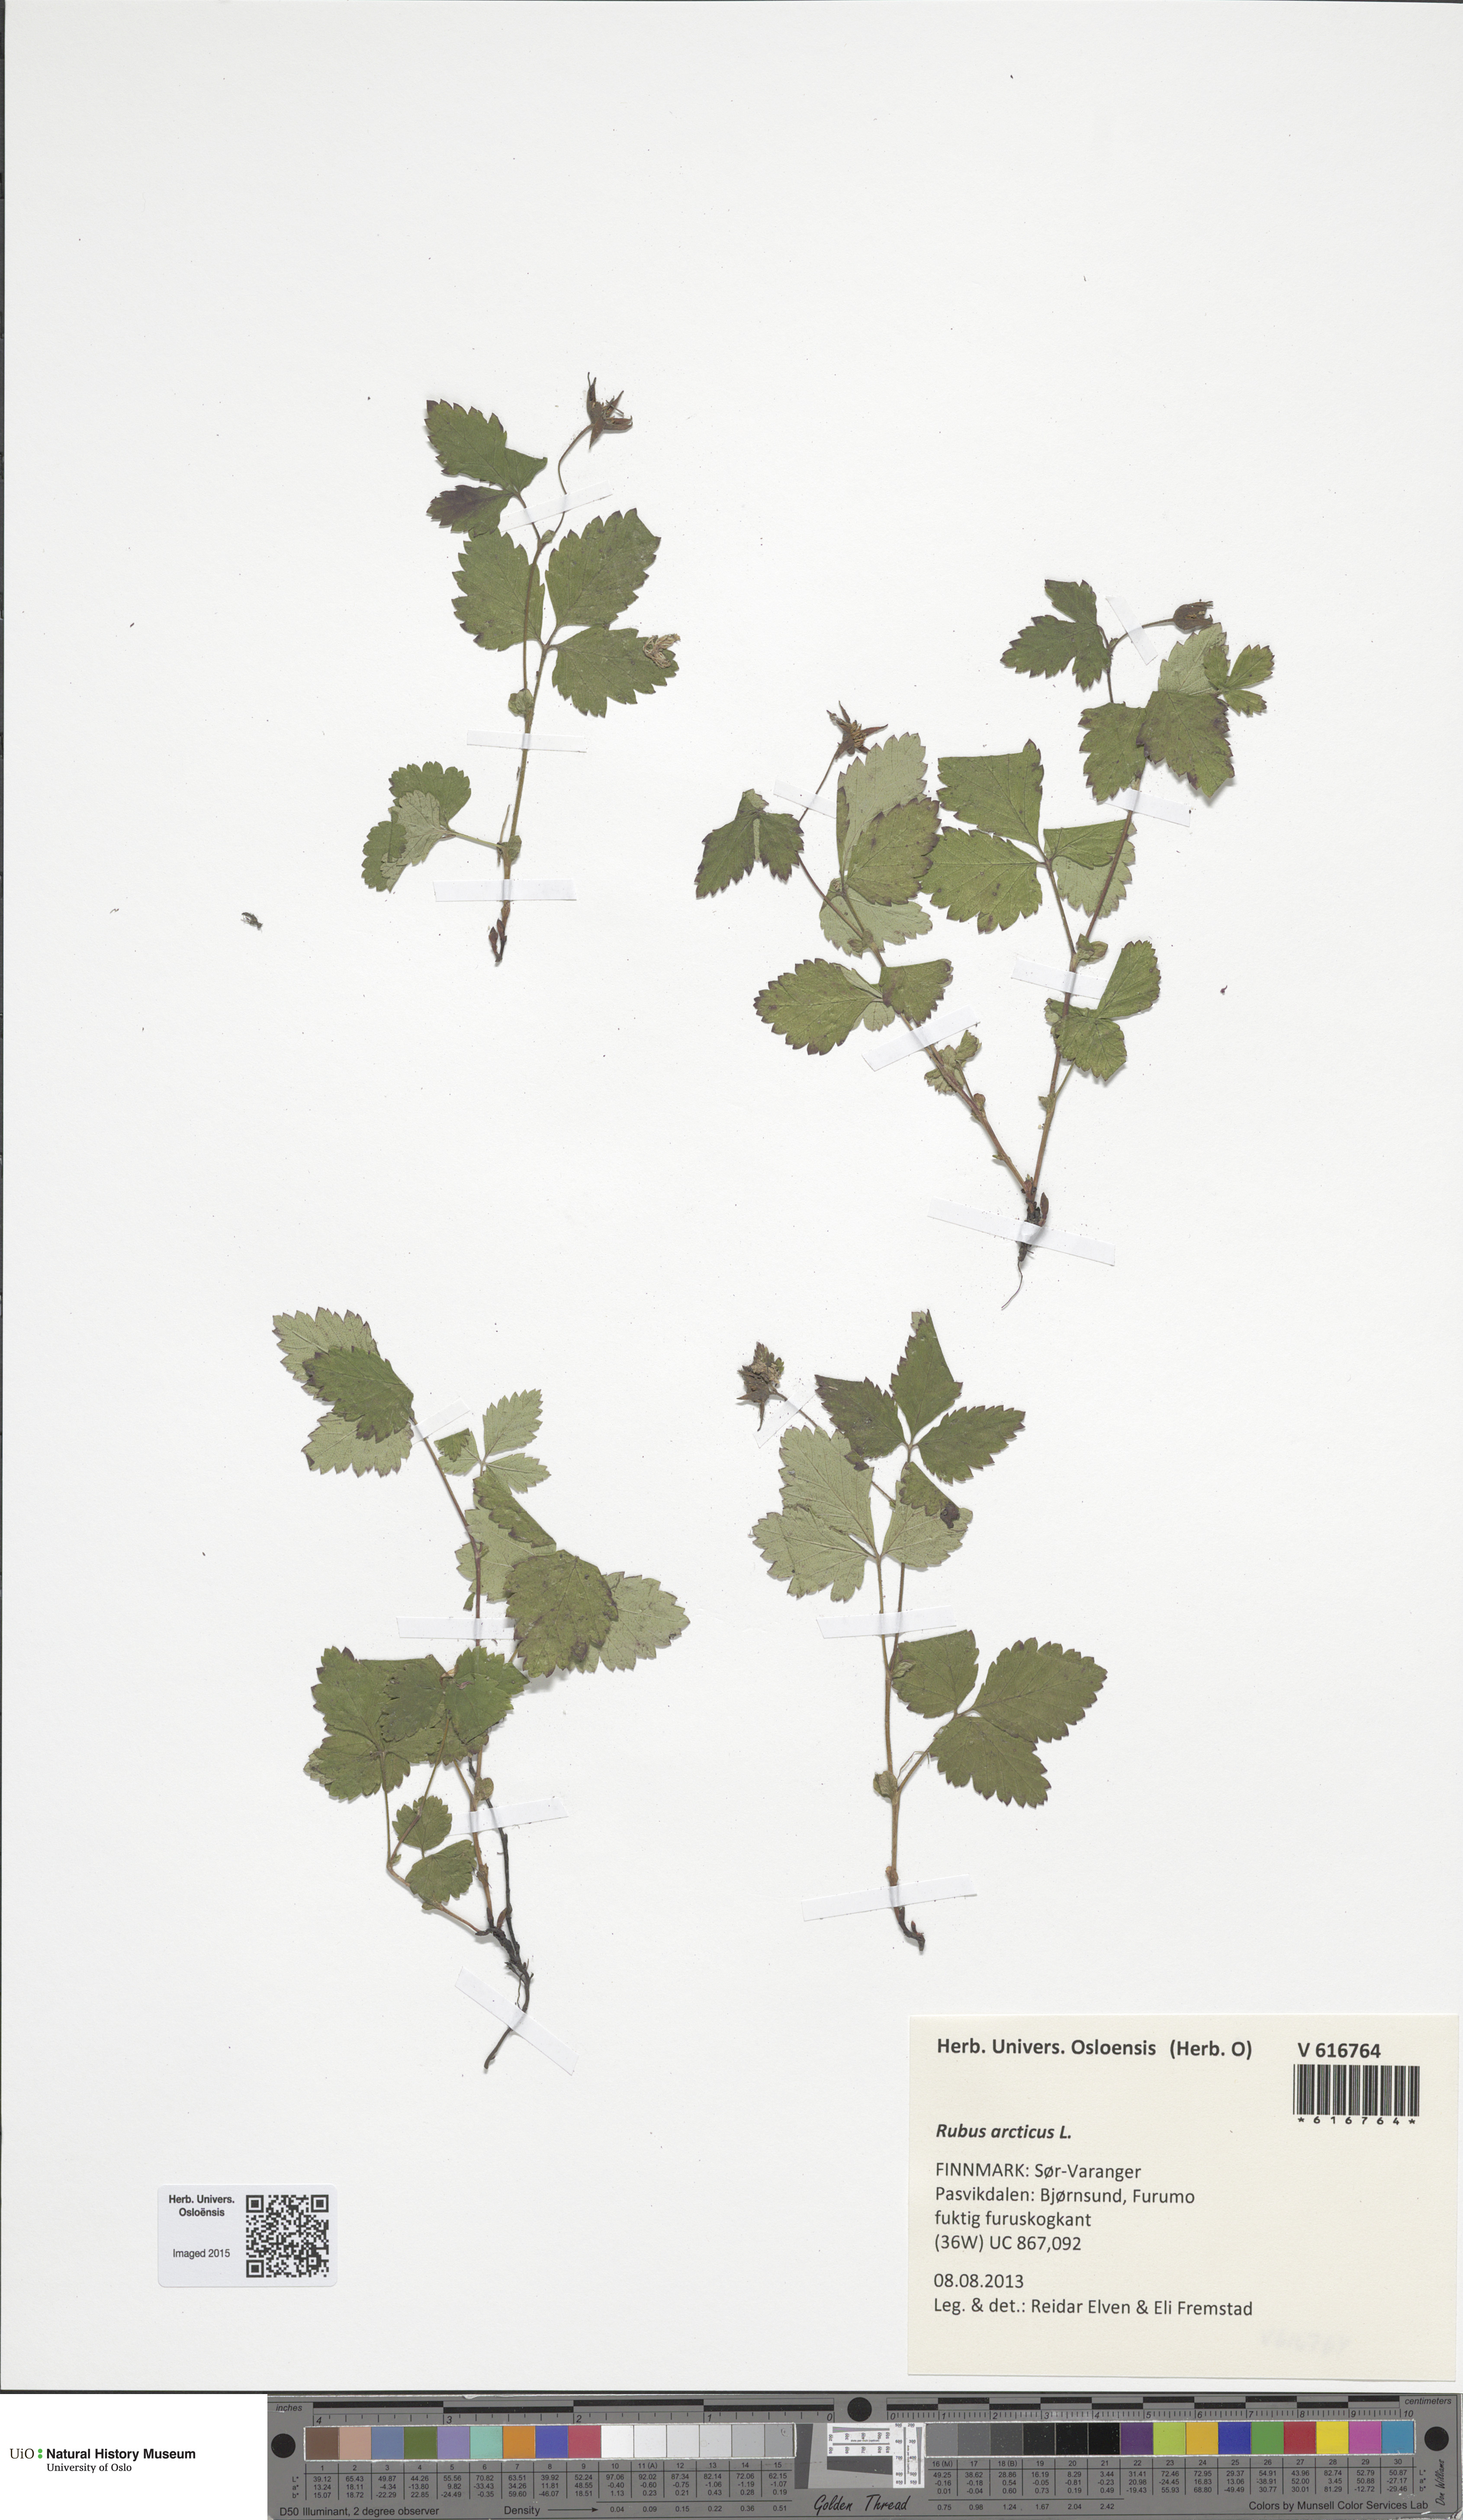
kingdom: Plantae
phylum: Tracheophyta
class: Magnoliopsida
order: Rosales
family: Rosaceae
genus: Rubus
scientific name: Rubus arcticus
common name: Arctic bramble
